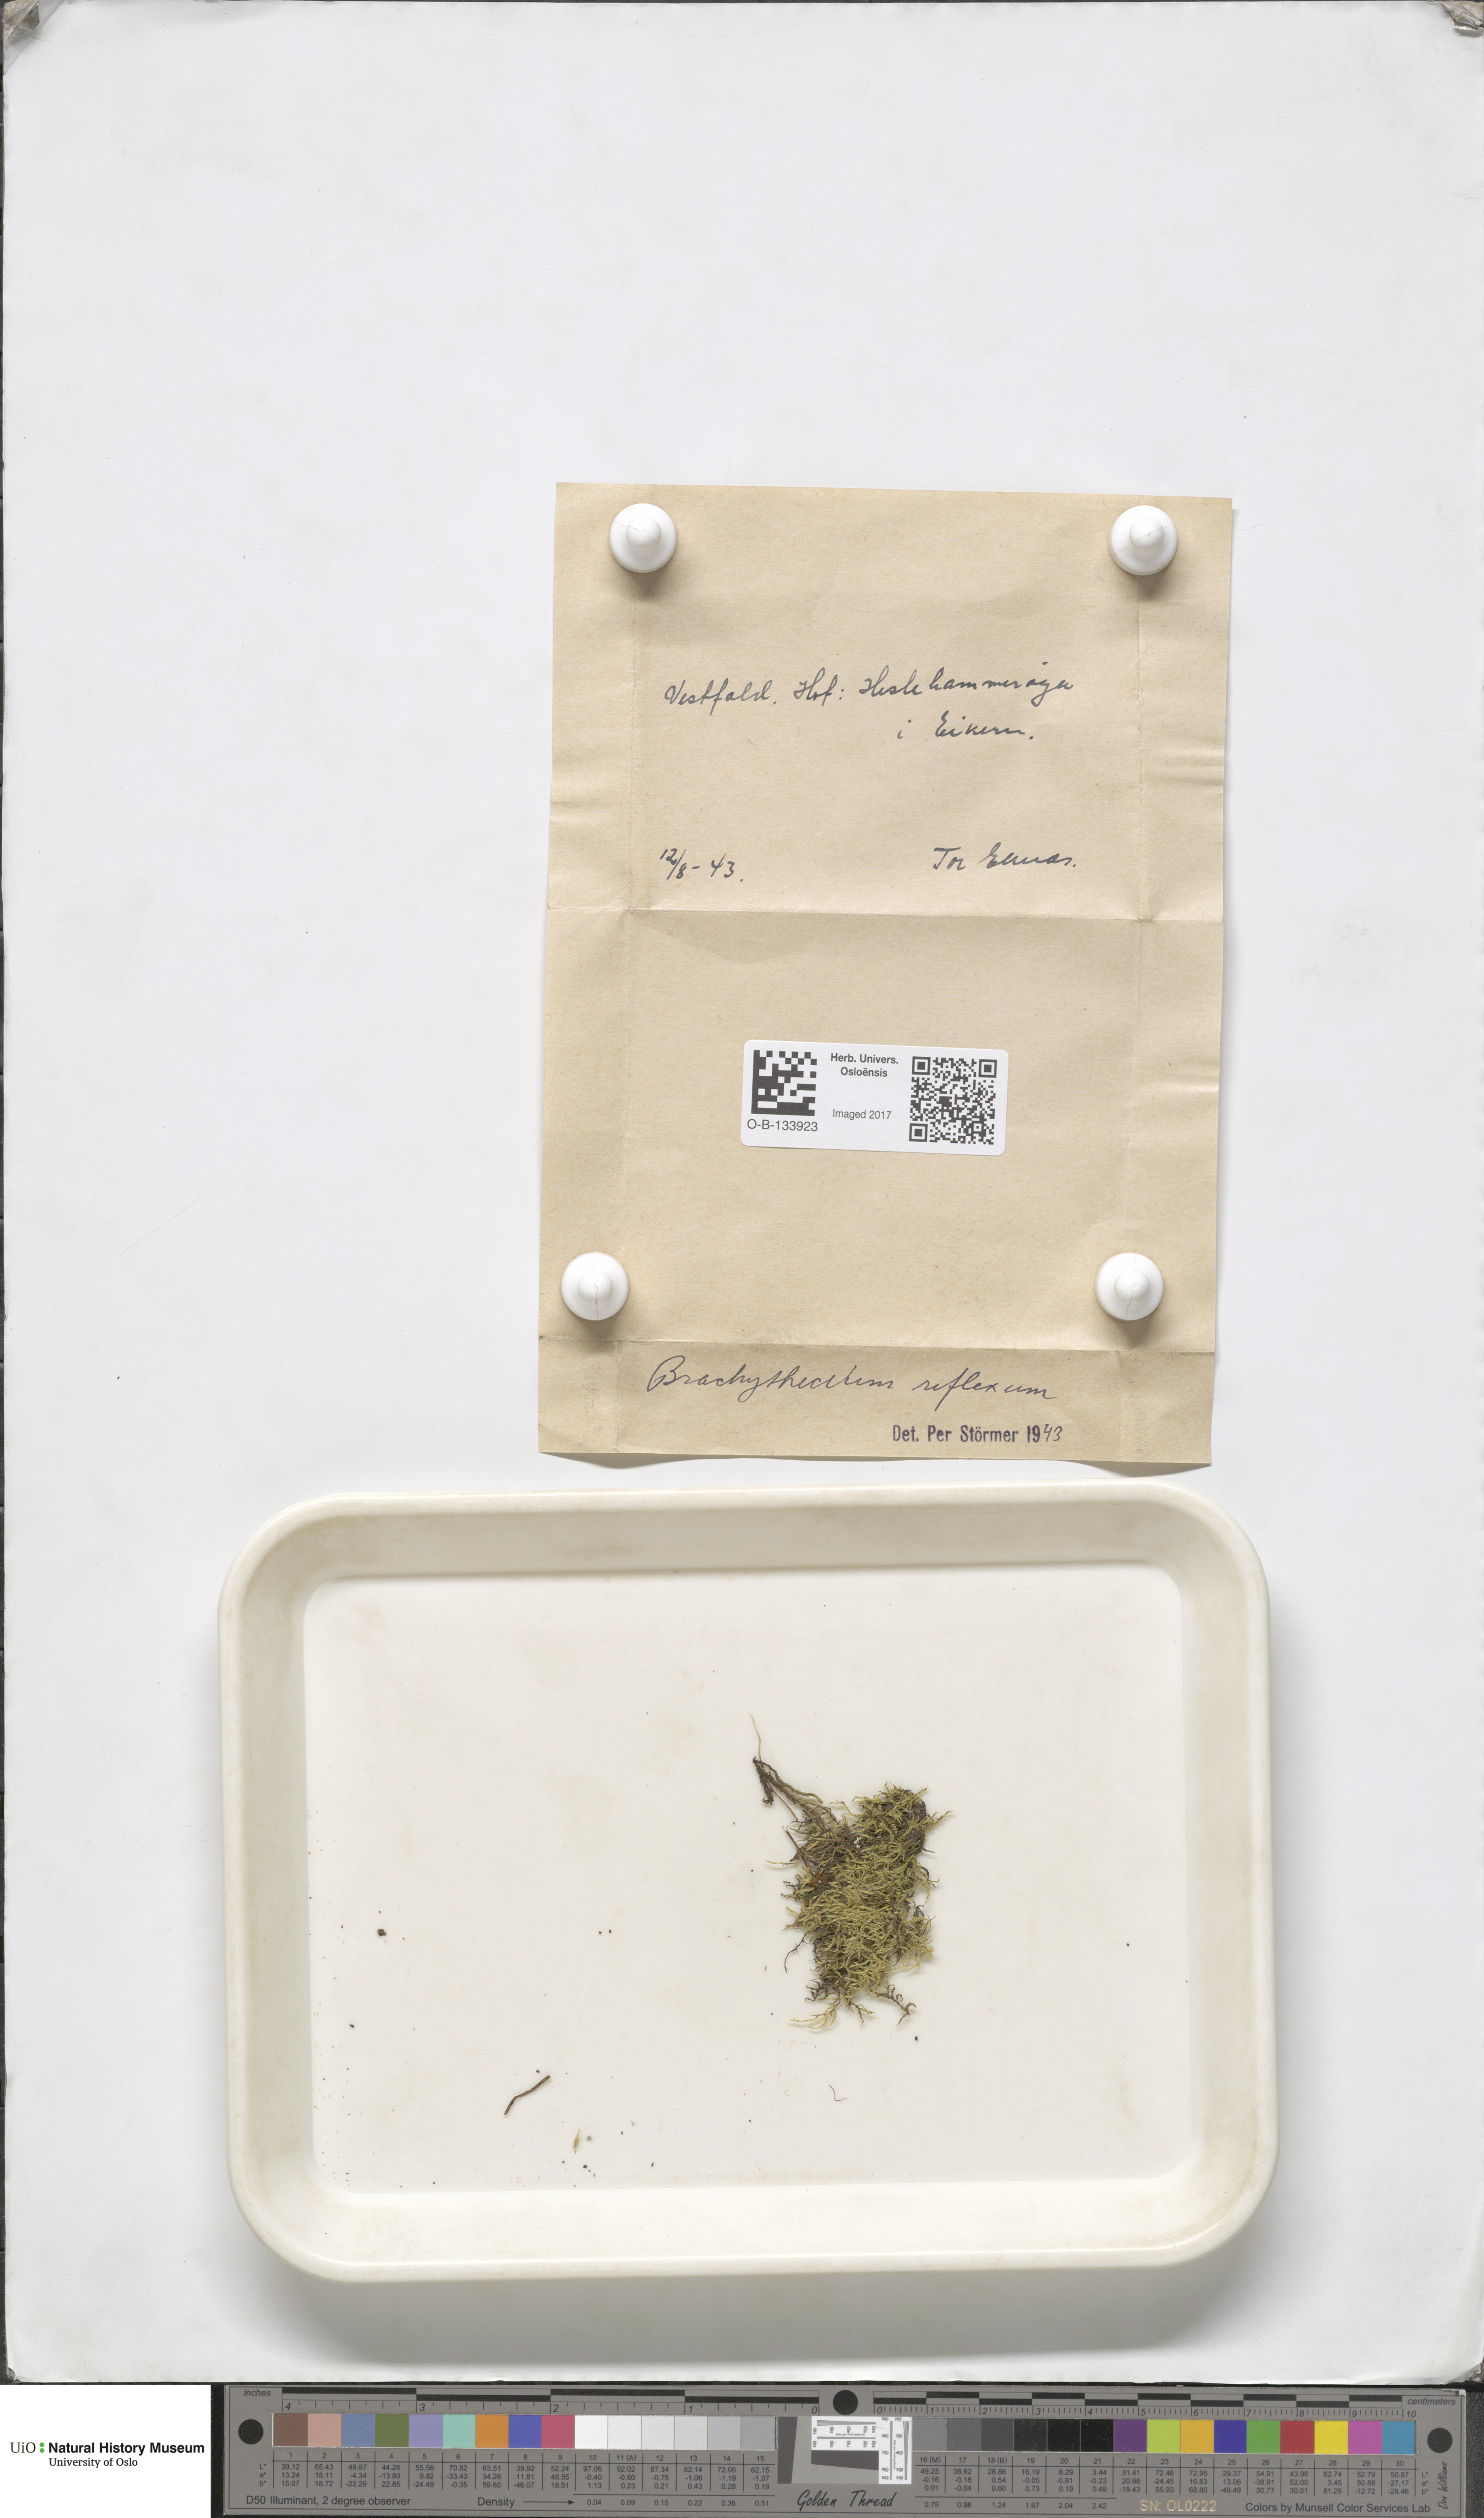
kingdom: Plantae
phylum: Bryophyta
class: Bryopsida
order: Hypnales
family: Brachytheciaceae
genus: Sciuro-hypnum
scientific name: Sciuro-hypnum reflexum
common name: Reflexed feather-moss
